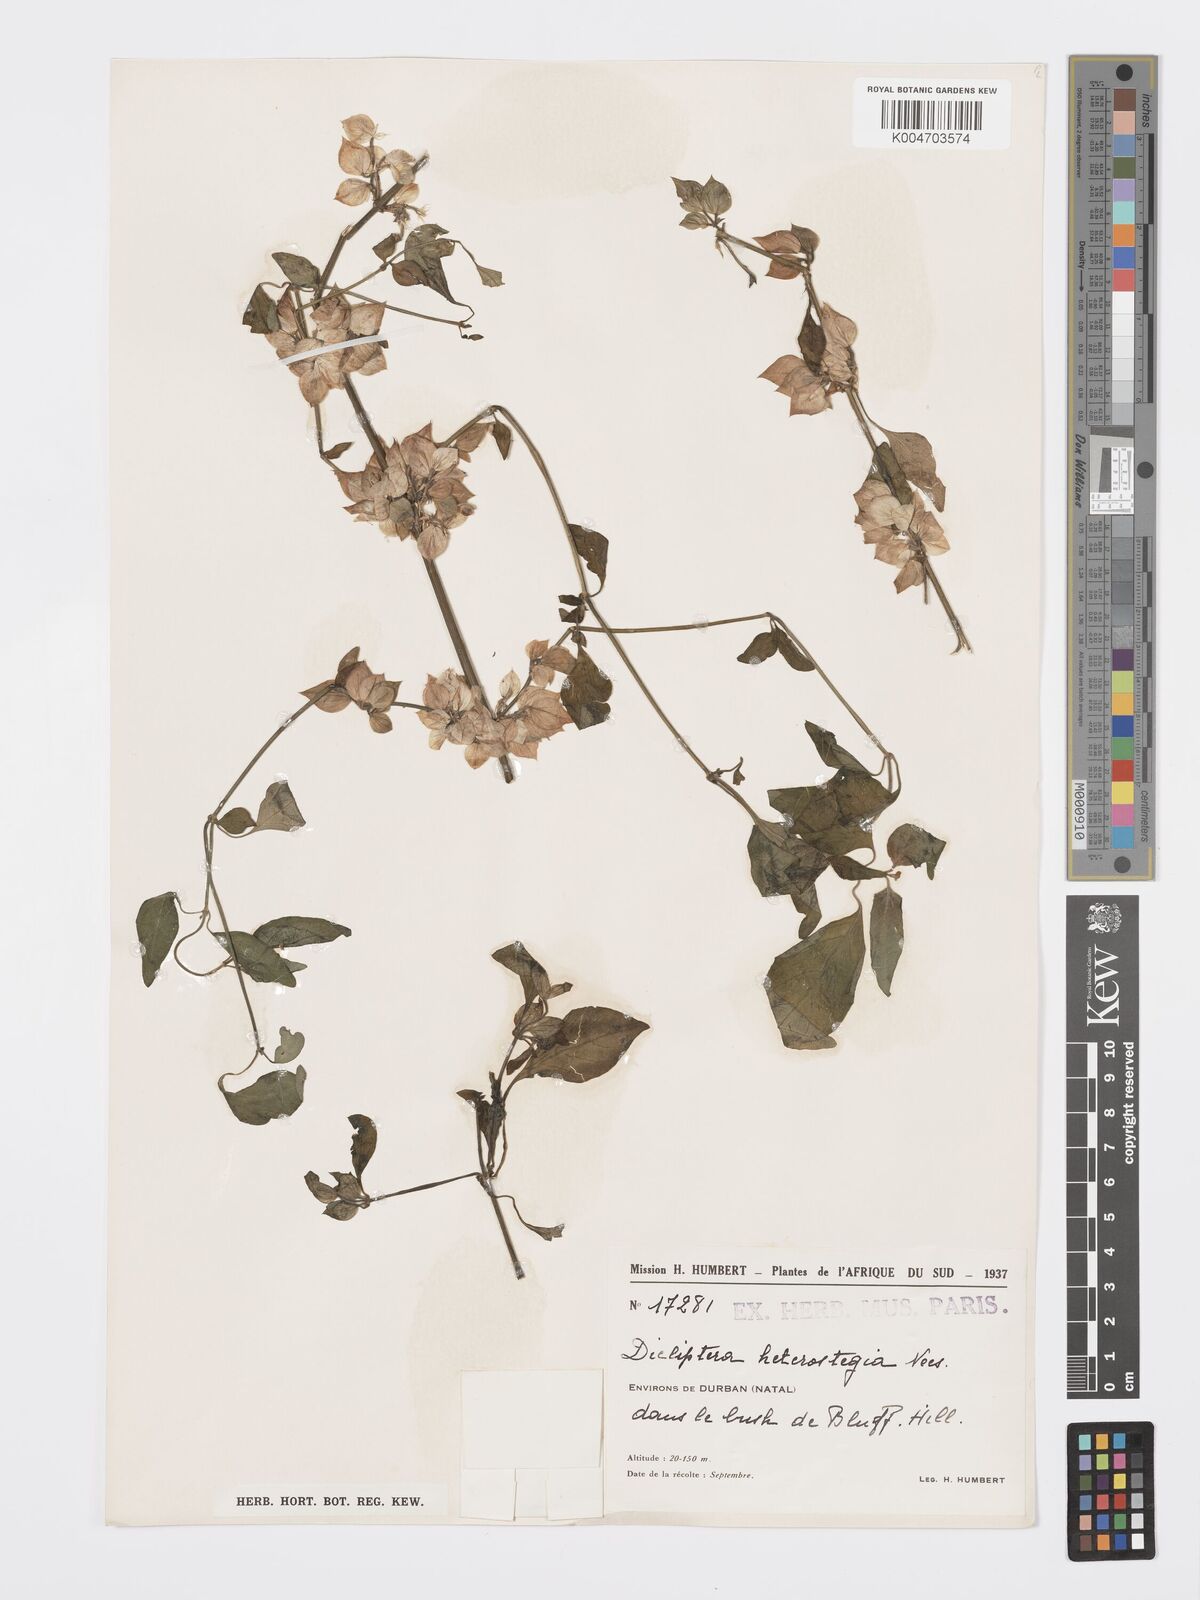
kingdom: Plantae
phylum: Tracheophyta
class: Magnoliopsida
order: Lamiales
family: Acanthaceae
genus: Dicliptera
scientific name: Dicliptera heterostegia
